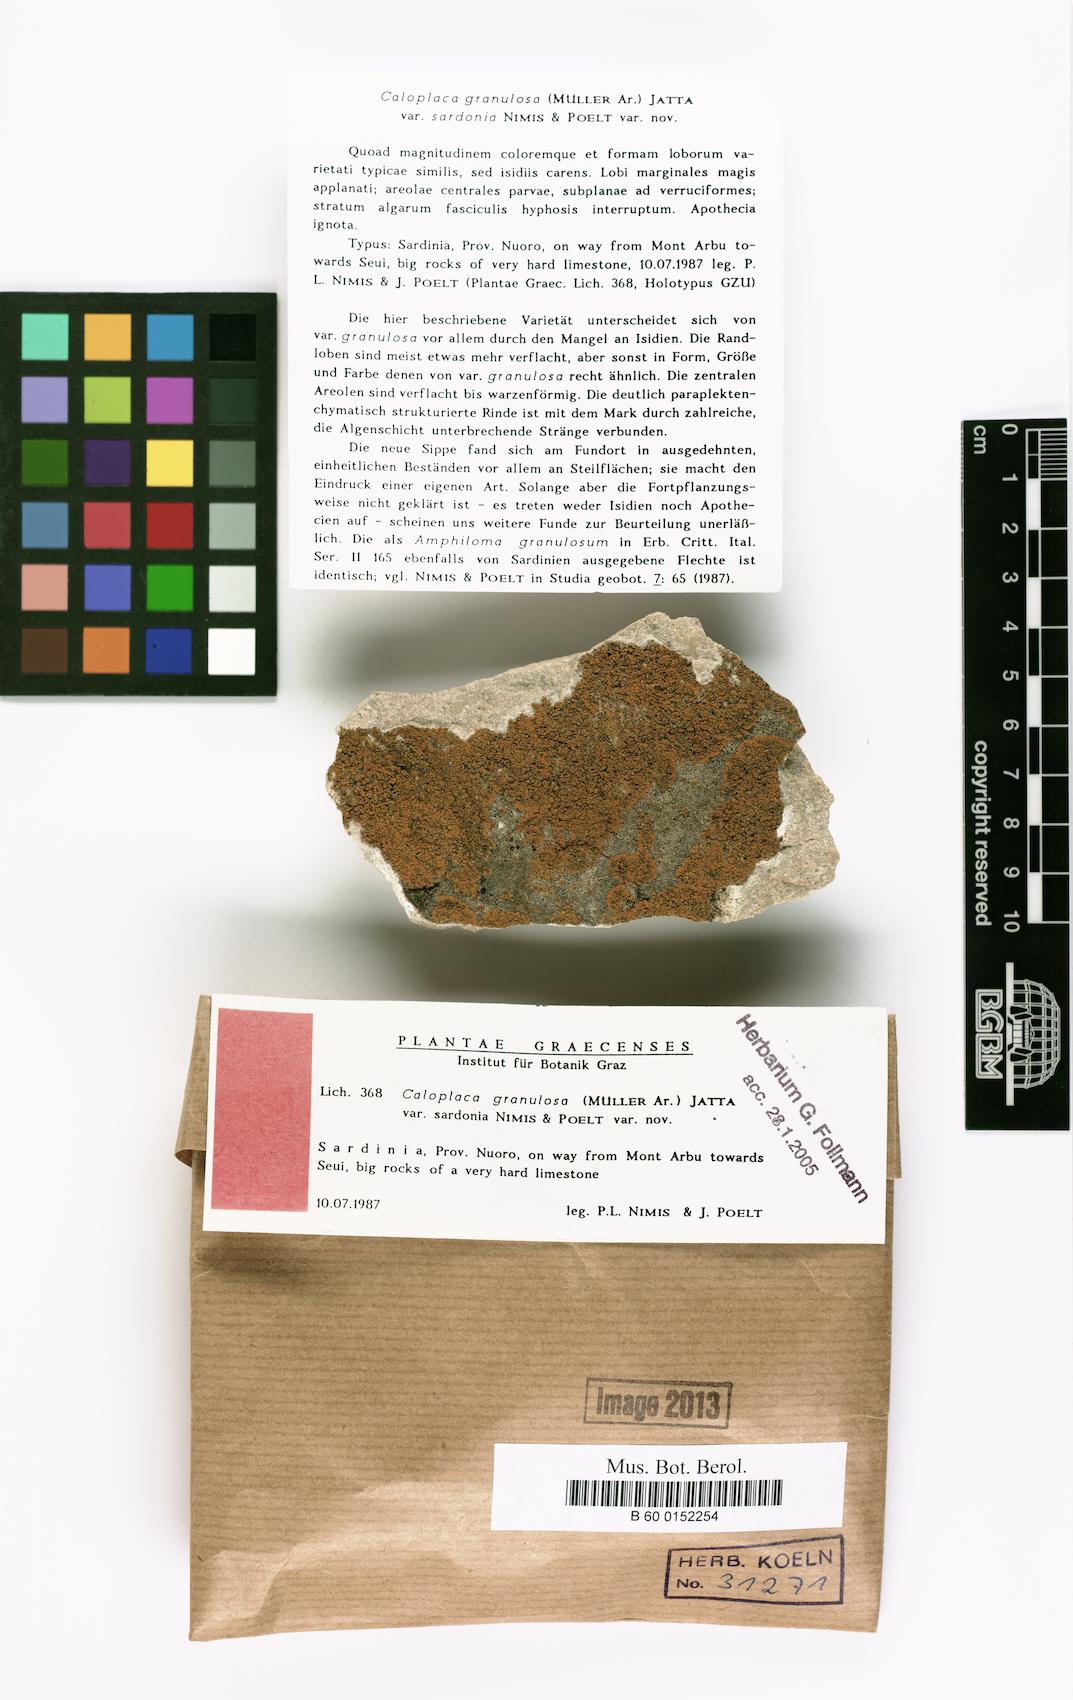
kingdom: Fungi
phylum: Ascomycota
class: Lecanoromycetes
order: Teloschistales
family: Teloschistaceae
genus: Flavoplaca
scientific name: Flavoplaca granulosa
